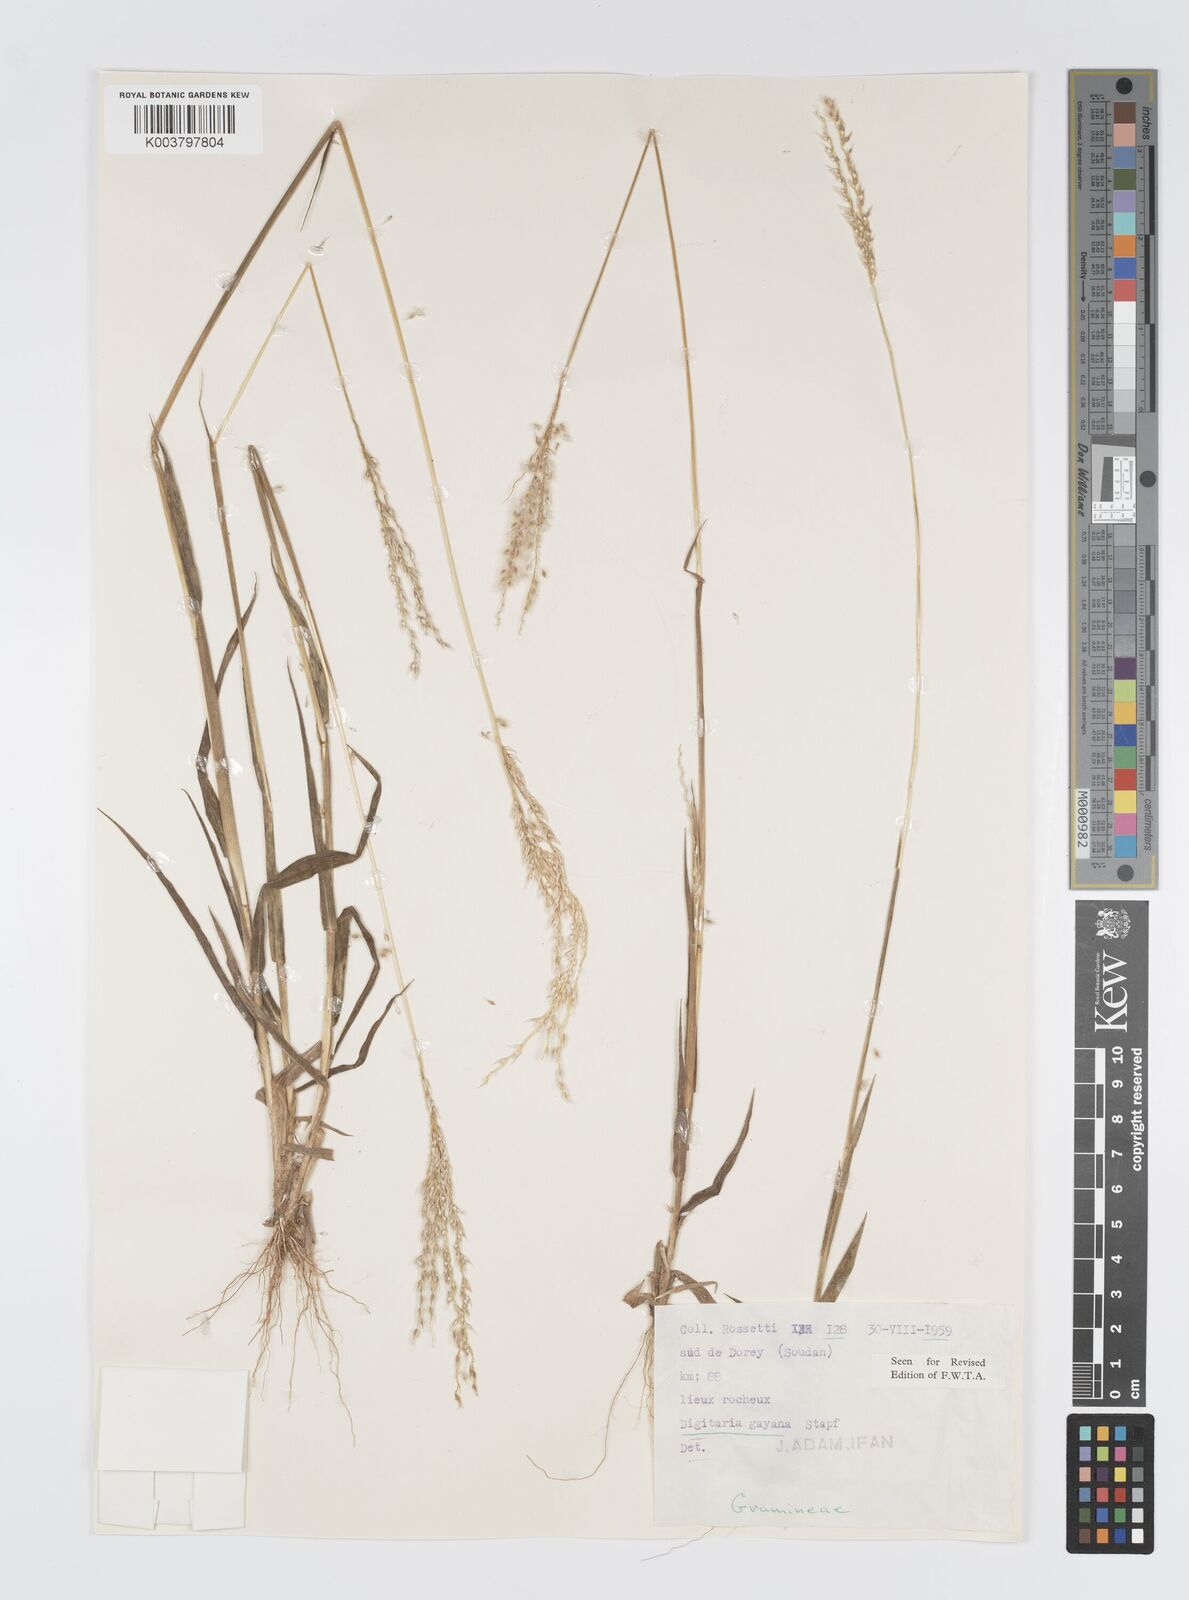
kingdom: Plantae
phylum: Tracheophyta
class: Liliopsida
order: Poales
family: Poaceae
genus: Digitaria
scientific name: Digitaria gayana
